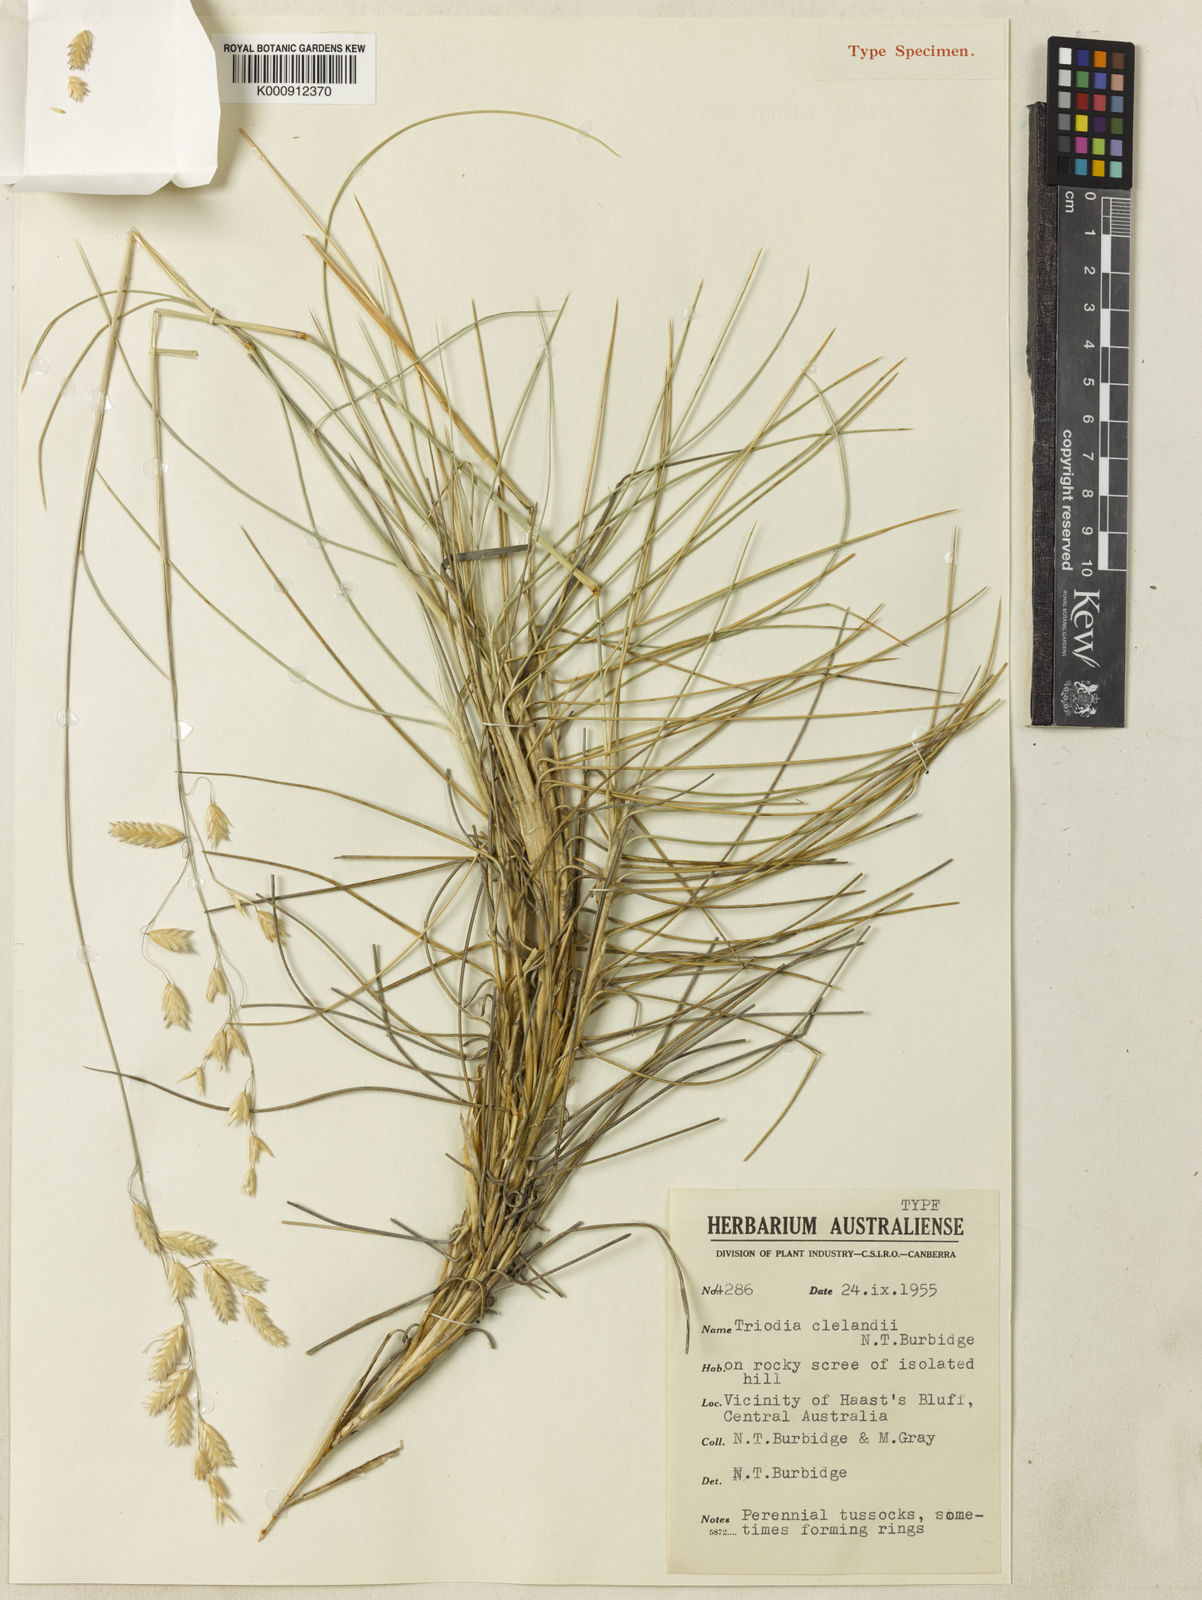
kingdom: Plantae
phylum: Tracheophyta
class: Liliopsida
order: Poales
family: Poaceae
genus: Triodia
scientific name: Triodia brizoides
